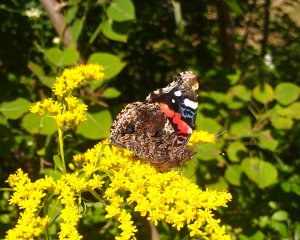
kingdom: Animalia
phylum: Arthropoda
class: Insecta
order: Lepidoptera
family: Nymphalidae
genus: Vanessa
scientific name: Vanessa atalanta
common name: Red Admiral
